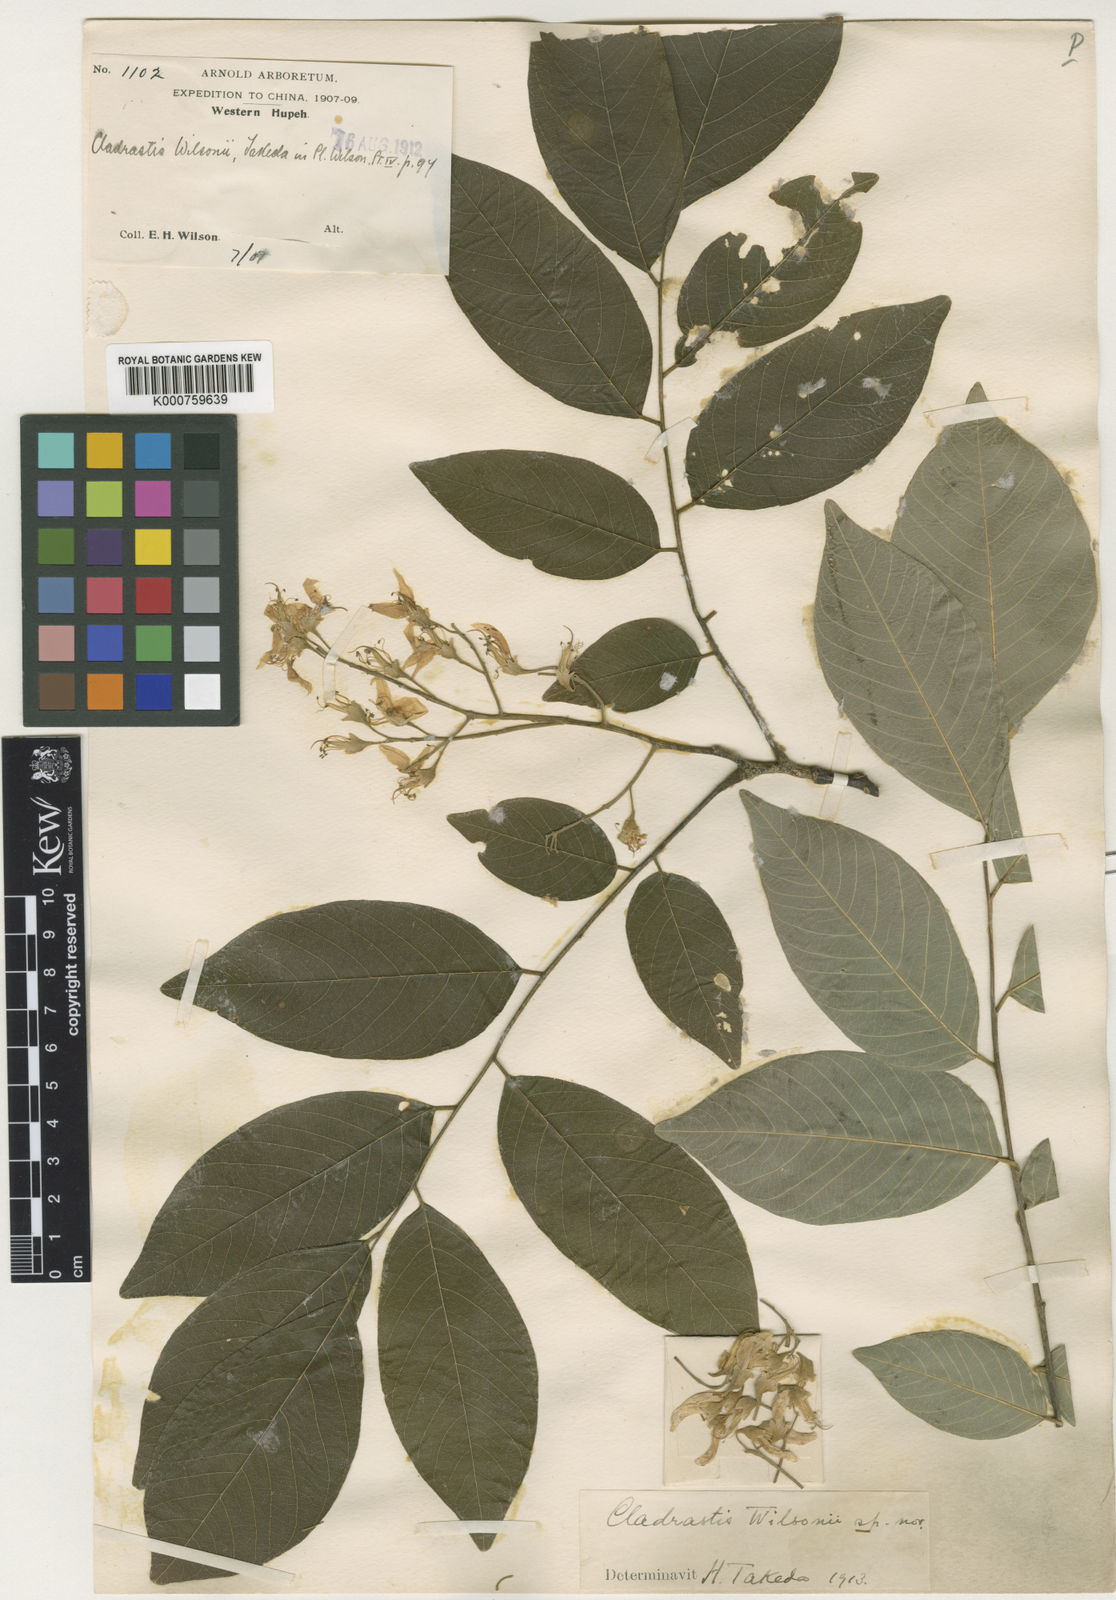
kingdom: Plantae
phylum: Tracheophyta
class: Magnoliopsida
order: Fabales
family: Fabaceae
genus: Cladrastis
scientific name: Cladrastis wilsonii
